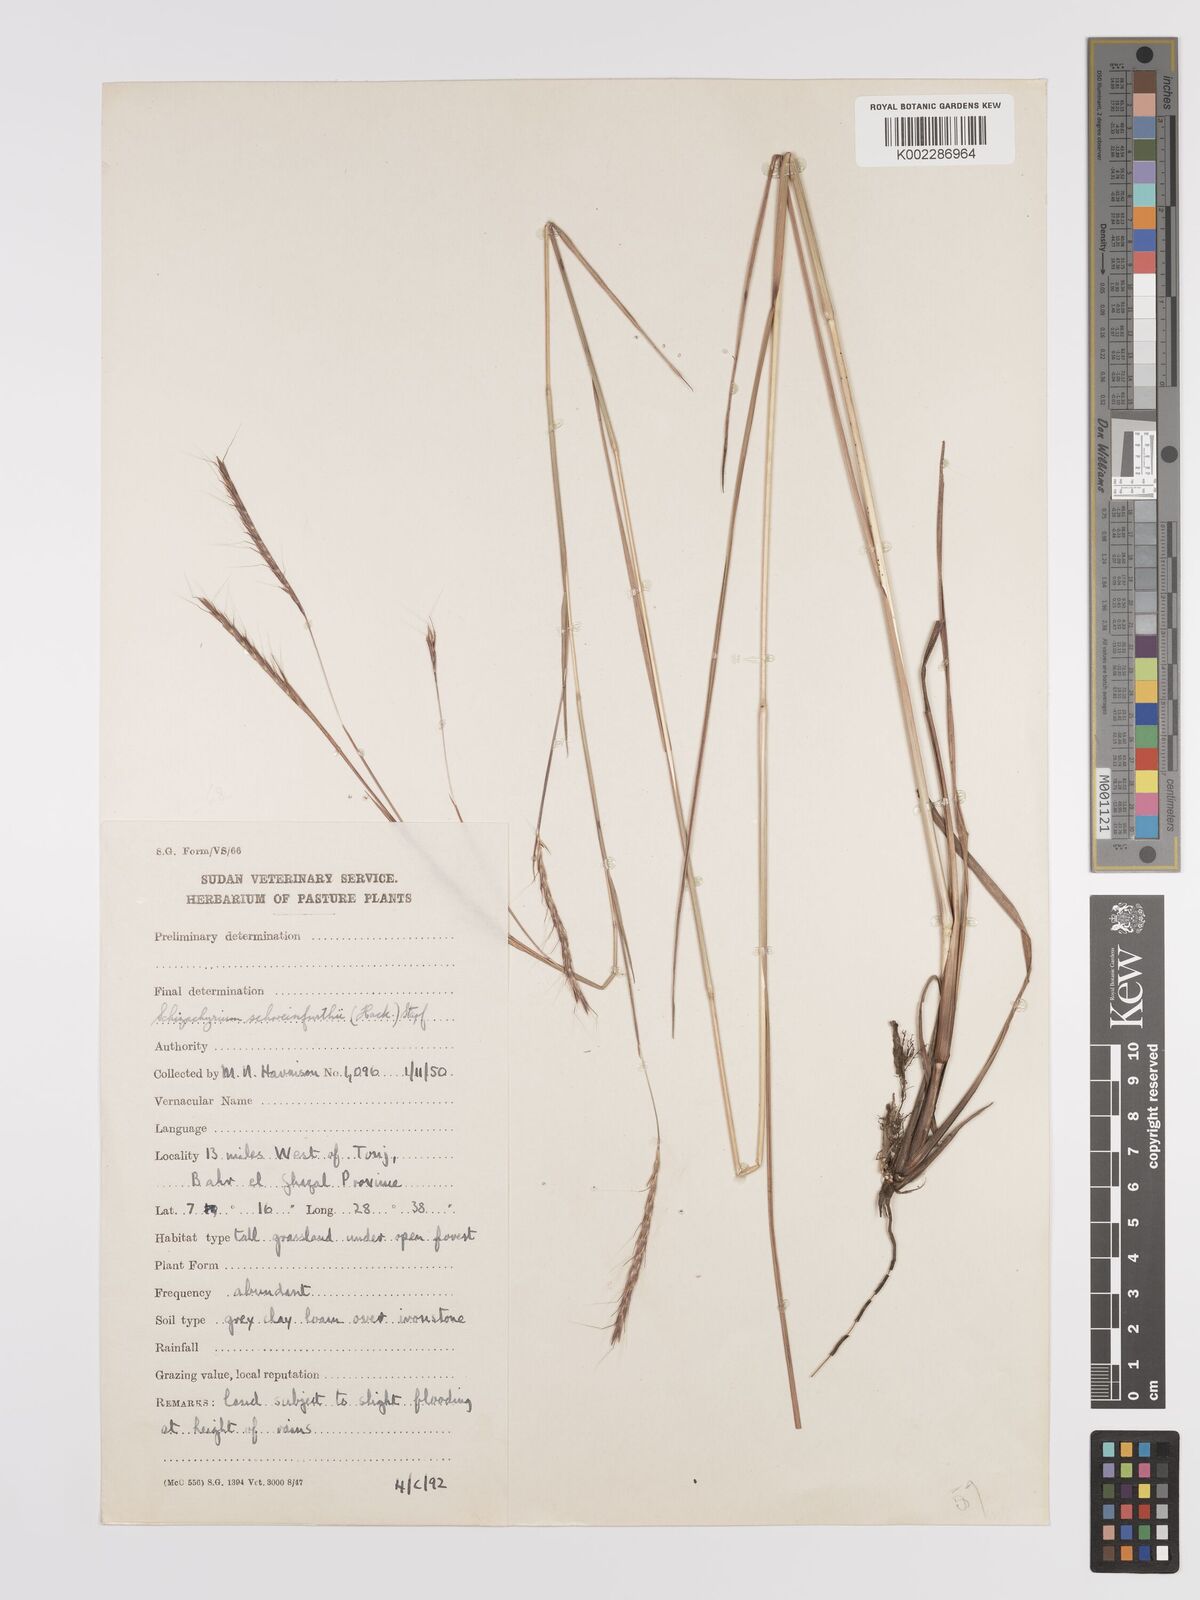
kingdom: Plantae
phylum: Tracheophyta
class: Liliopsida
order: Poales
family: Poaceae
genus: Andropogon
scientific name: Andropogon schweinfurthii
